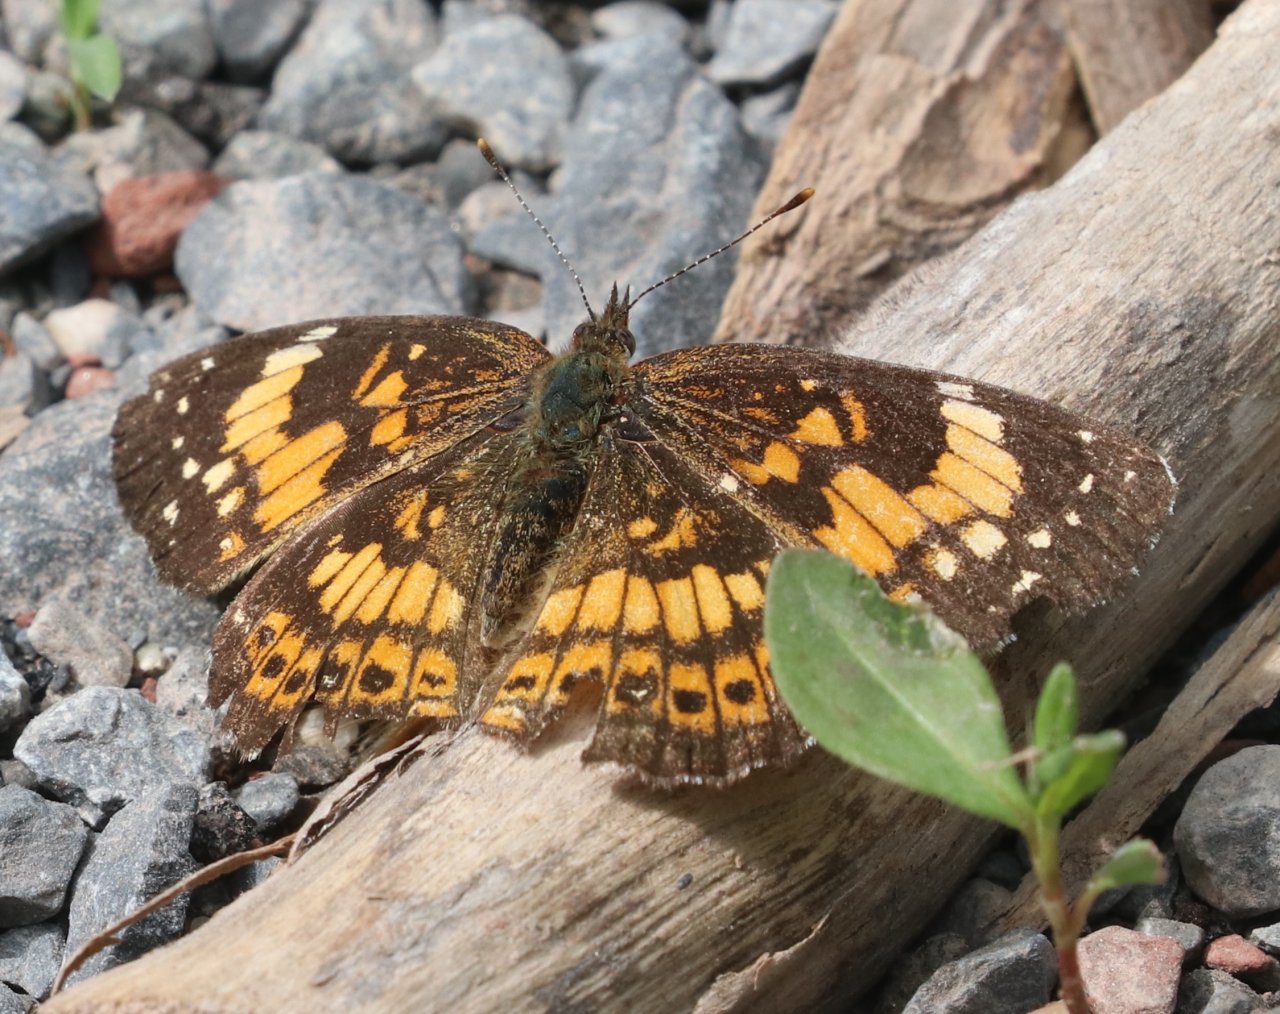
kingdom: Animalia
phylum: Arthropoda
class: Insecta
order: Lepidoptera
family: Nymphalidae
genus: Chlosyne
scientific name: Chlosyne nycteis
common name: Silvery Checkerspot
